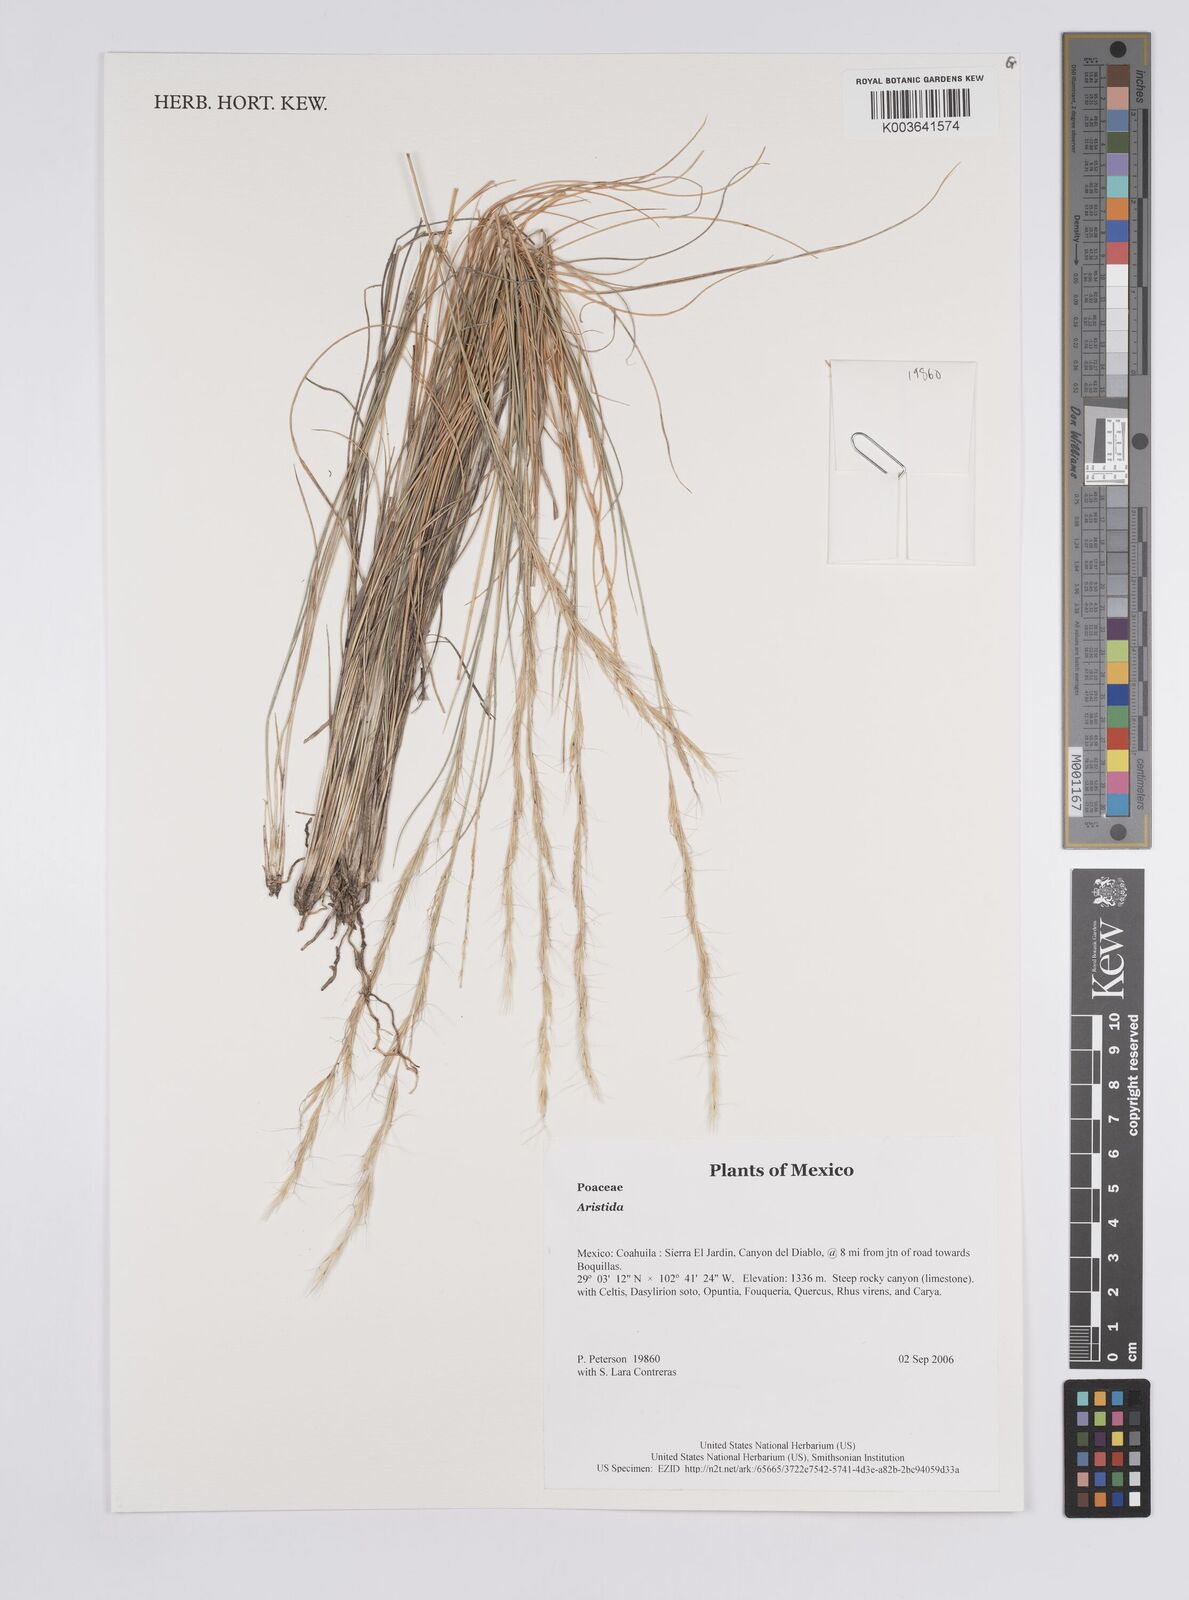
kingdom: Plantae
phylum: Tracheophyta
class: Liliopsida
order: Poales
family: Poaceae
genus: Aristida
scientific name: Aristida
